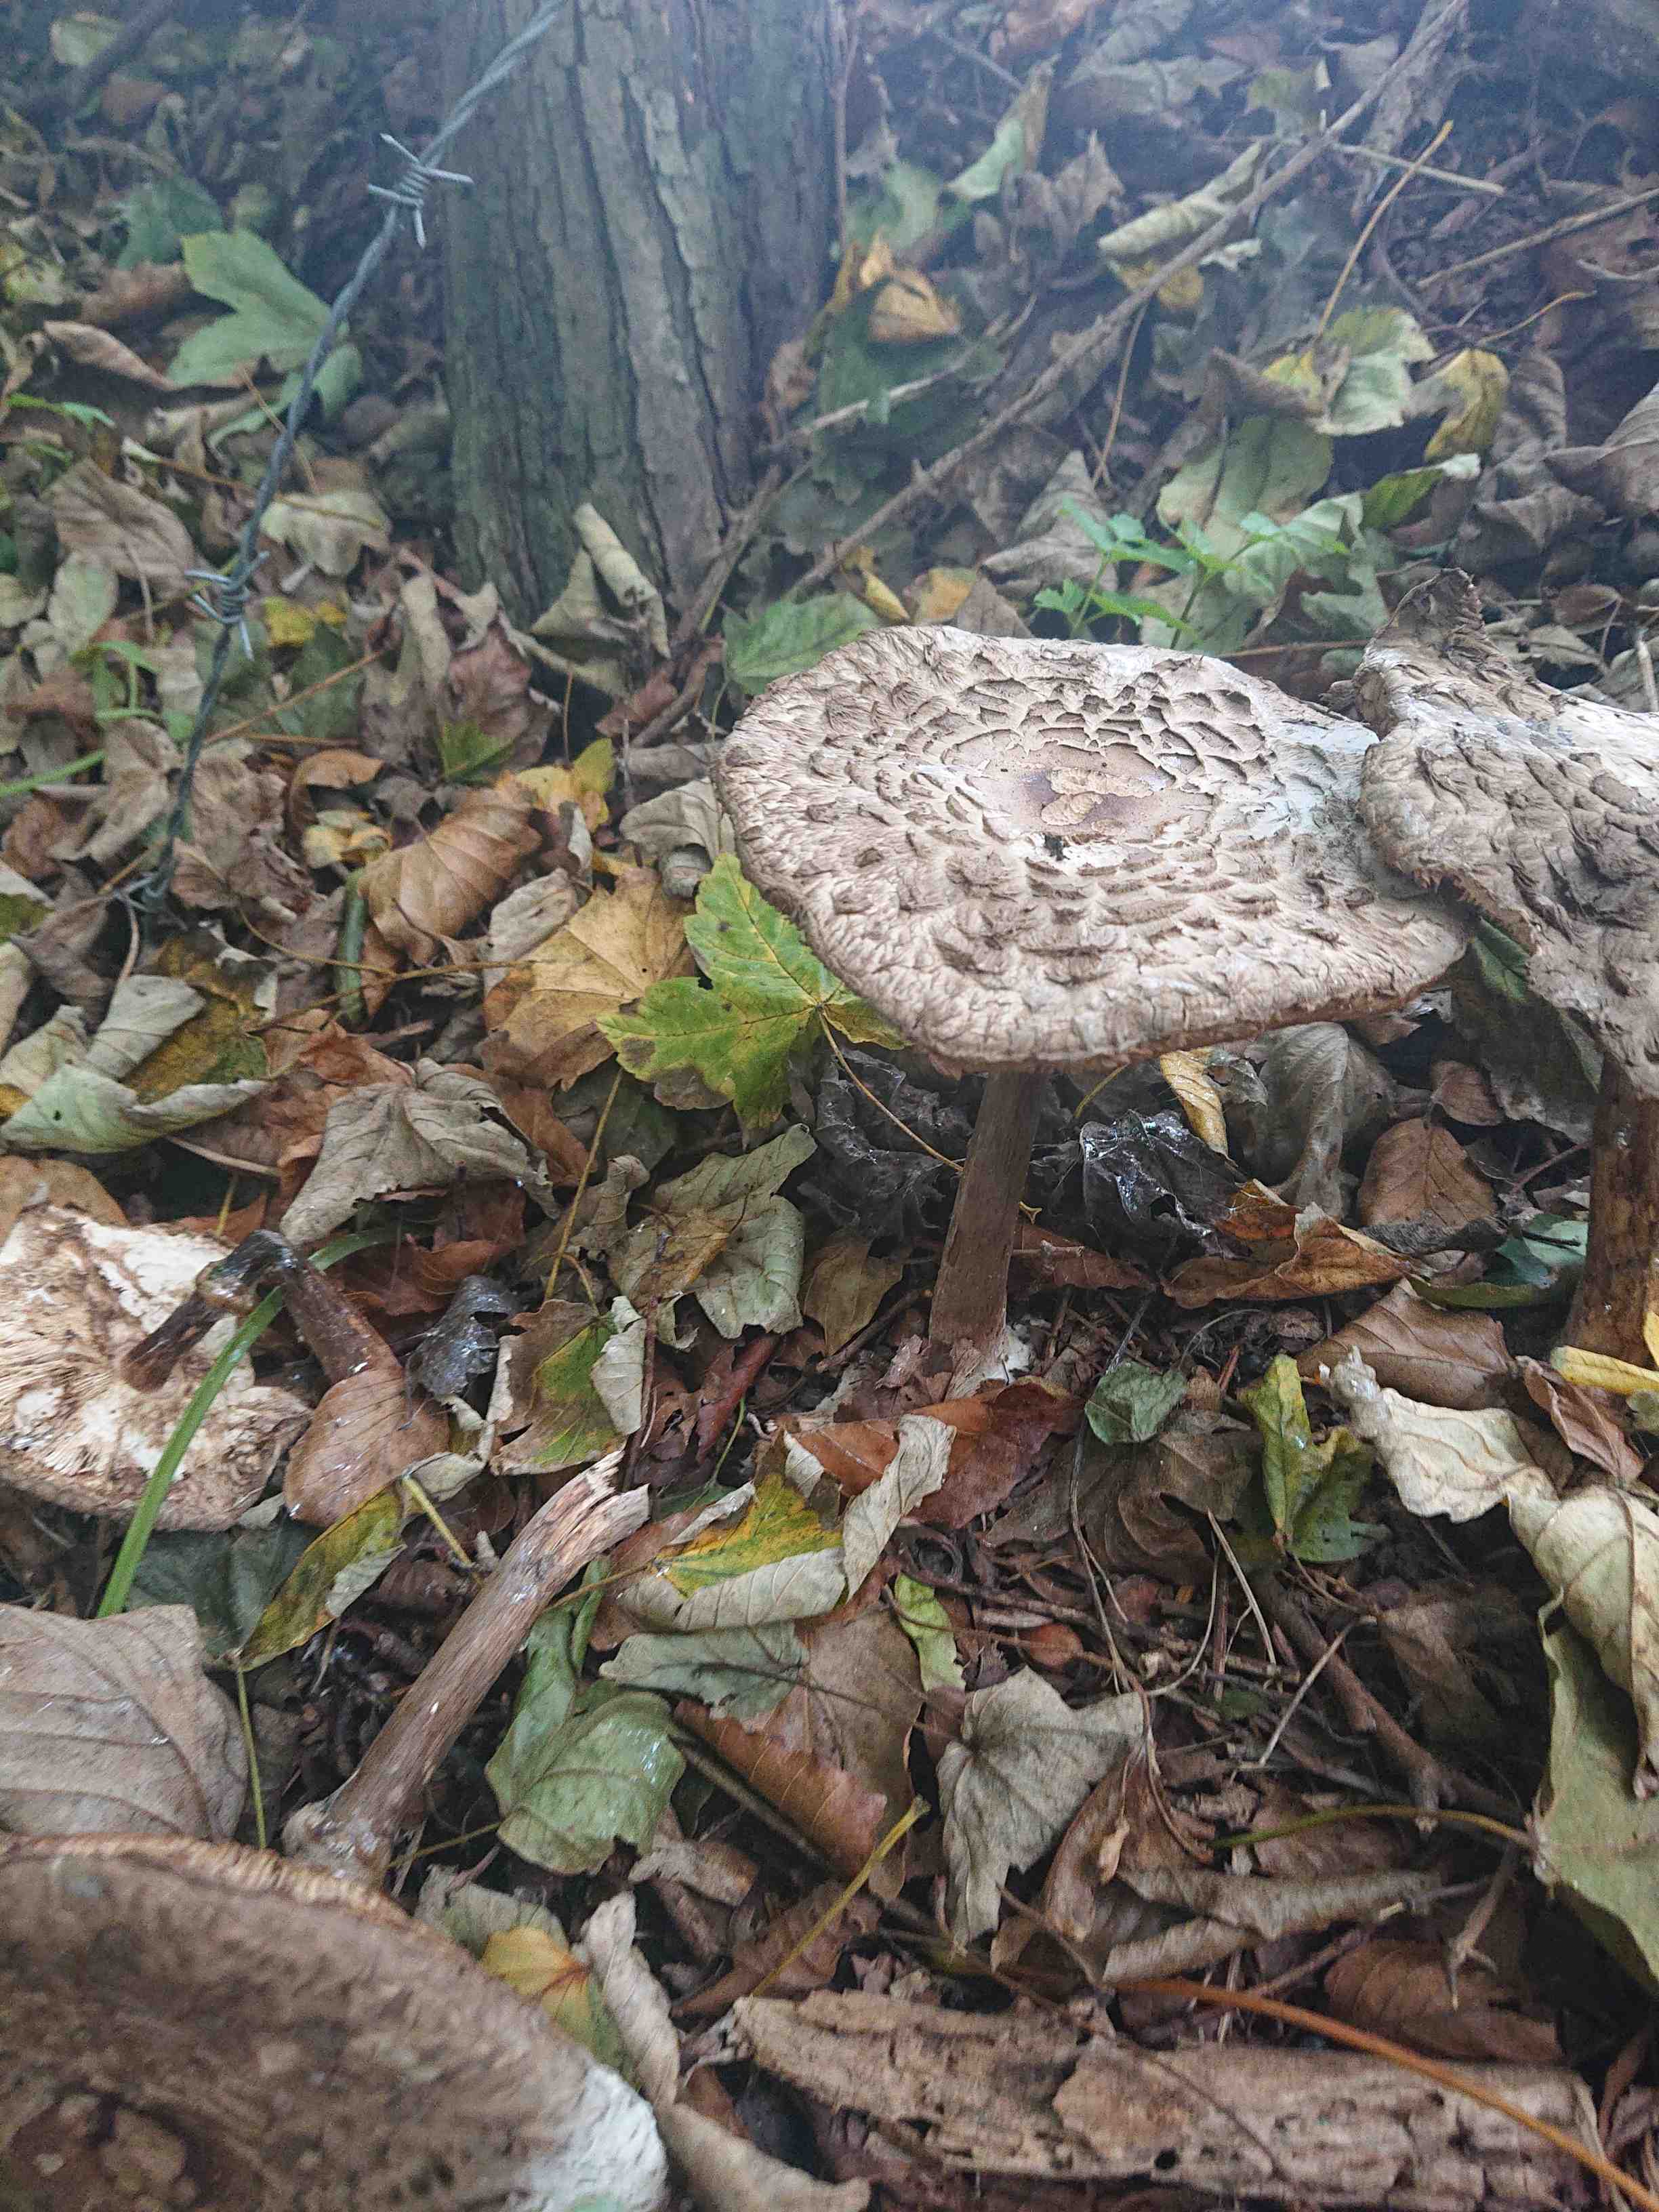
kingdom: Fungi
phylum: Basidiomycota
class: Agaricomycetes
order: Agaricales
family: Agaricaceae
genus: Chlorophyllum
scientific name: Chlorophyllum
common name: rabarberhat
